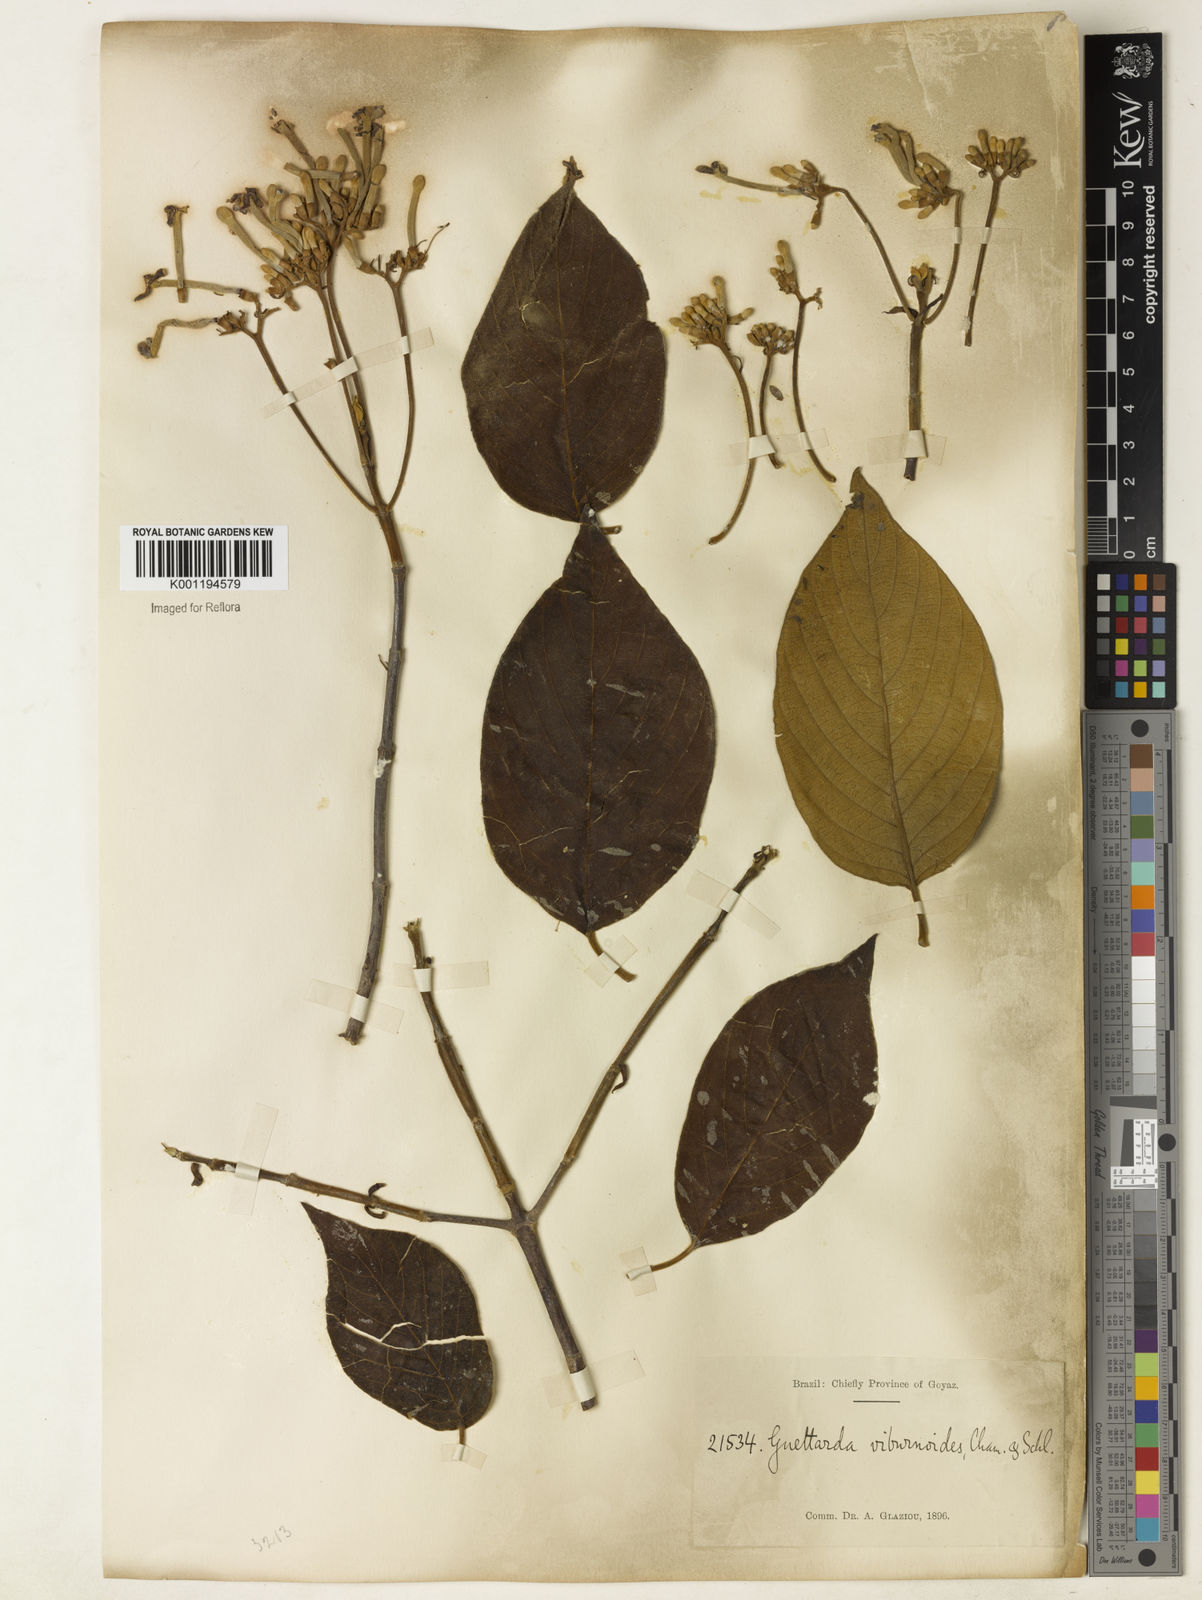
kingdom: Plantae
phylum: Tracheophyta
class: Magnoliopsida
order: Gentianales
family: Rubiaceae
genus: Guettarda
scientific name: Guettarda viburnoides
